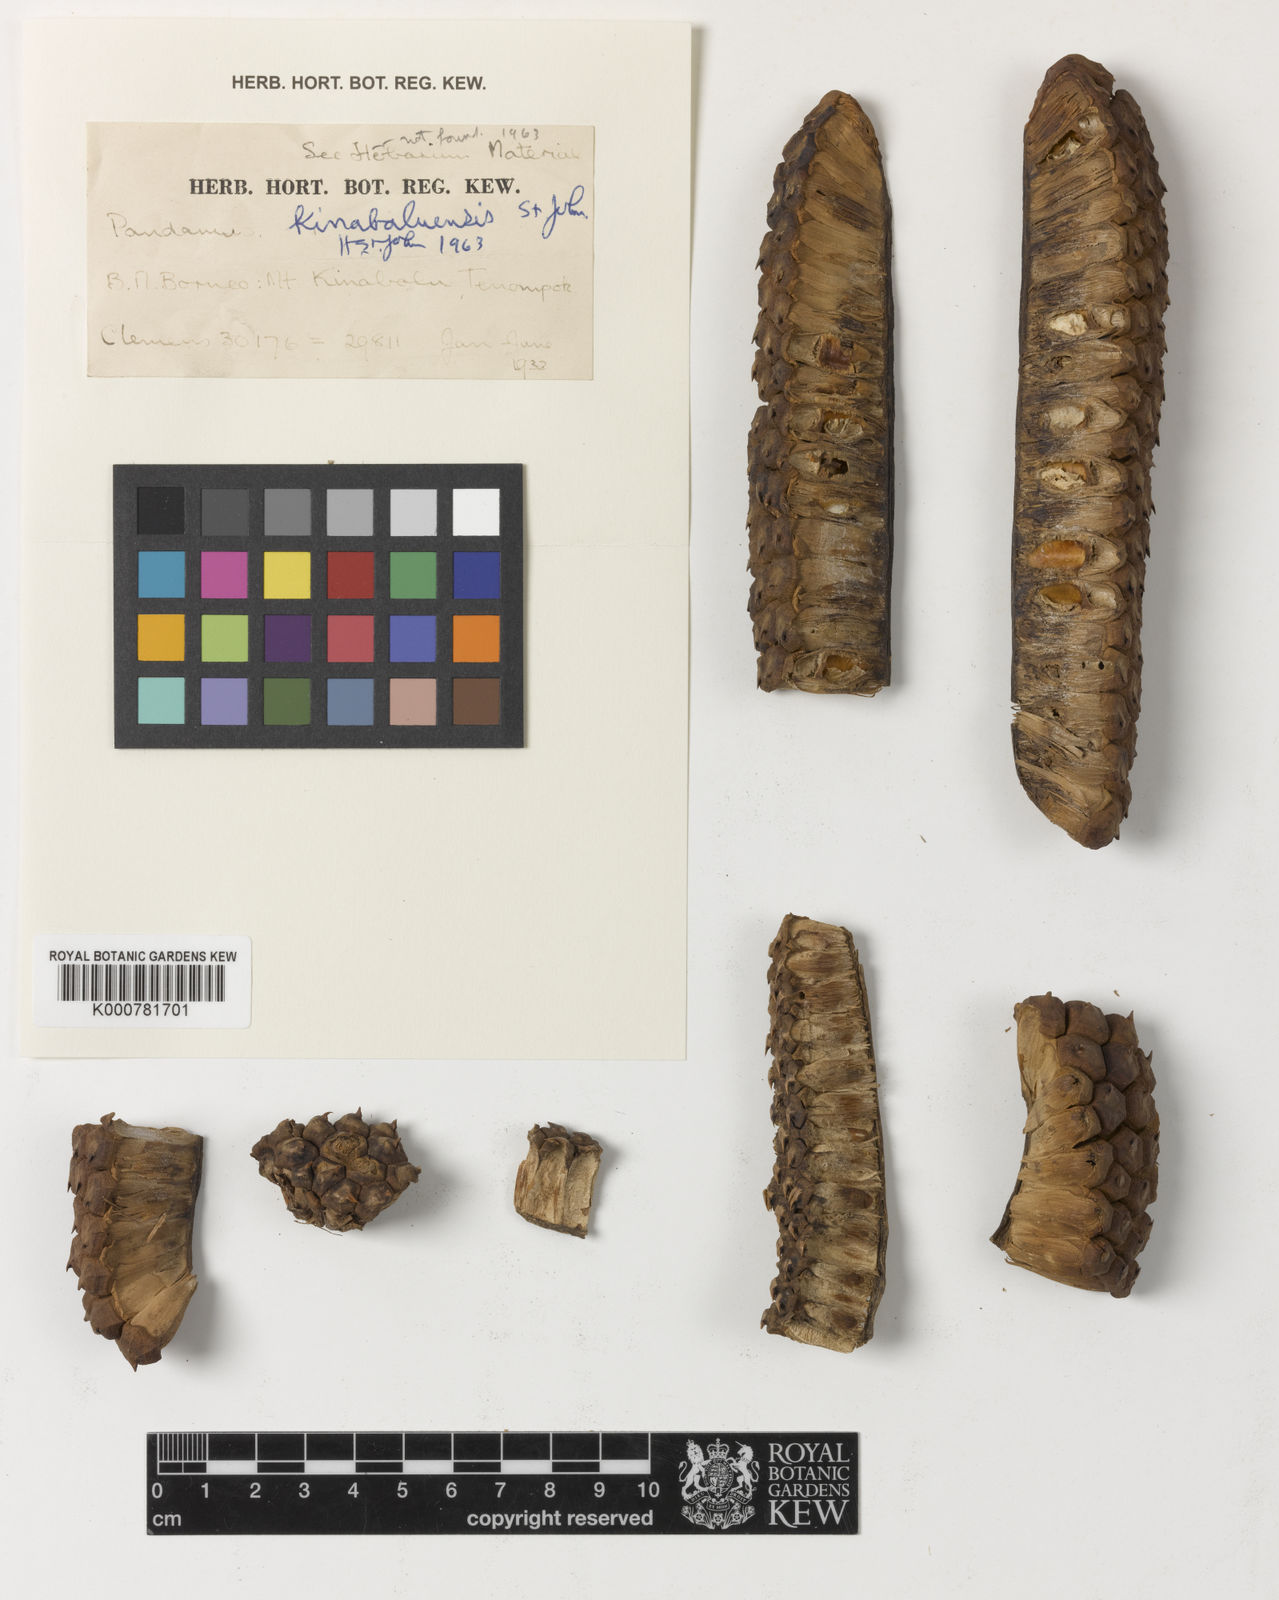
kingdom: Plantae
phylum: Tracheophyta
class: Liliopsida
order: Pandanales
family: Pandanaceae
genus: Pandanus
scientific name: Pandanus kinabaluensis
